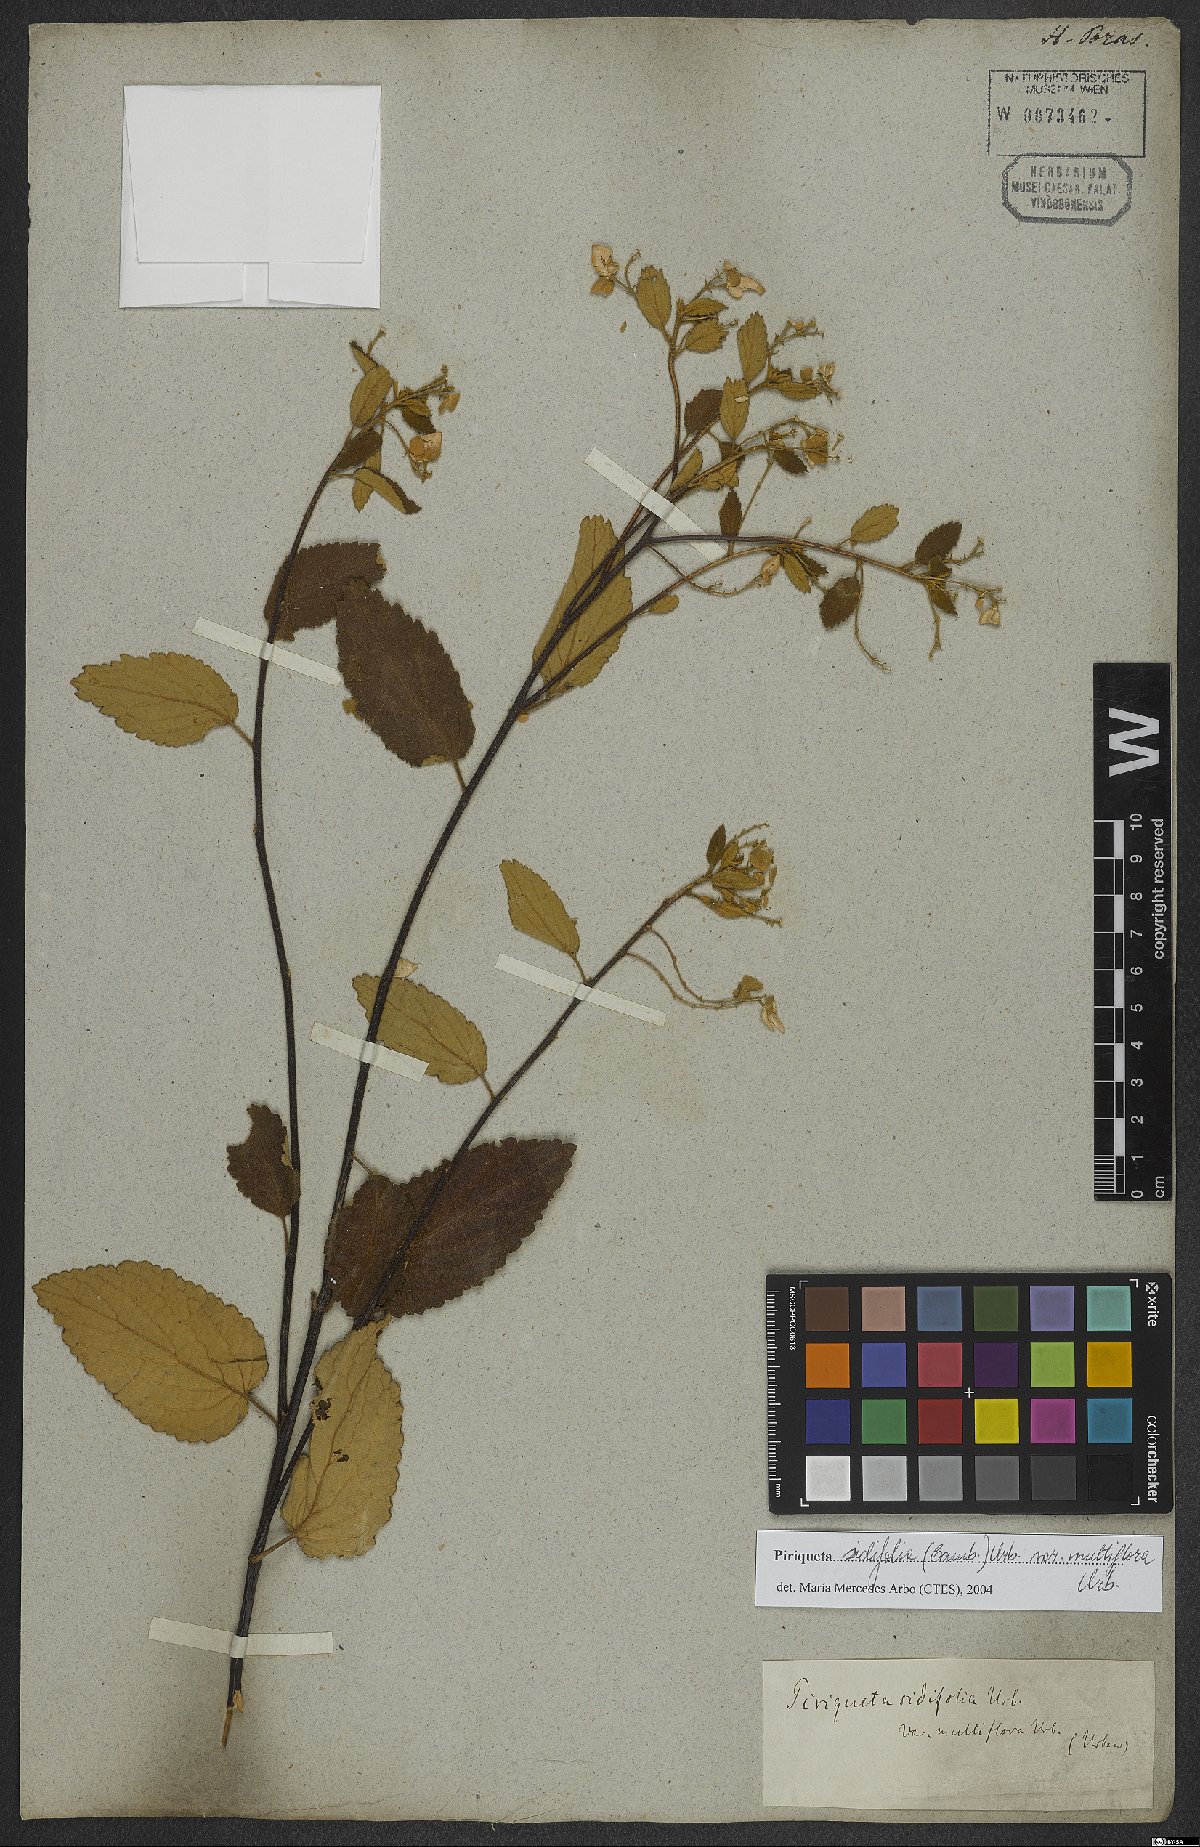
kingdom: Plantae
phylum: Tracheophyta
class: Magnoliopsida
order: Malpighiales
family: Turneraceae
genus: Piriqueta
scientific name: Piriqueta sidifolia
